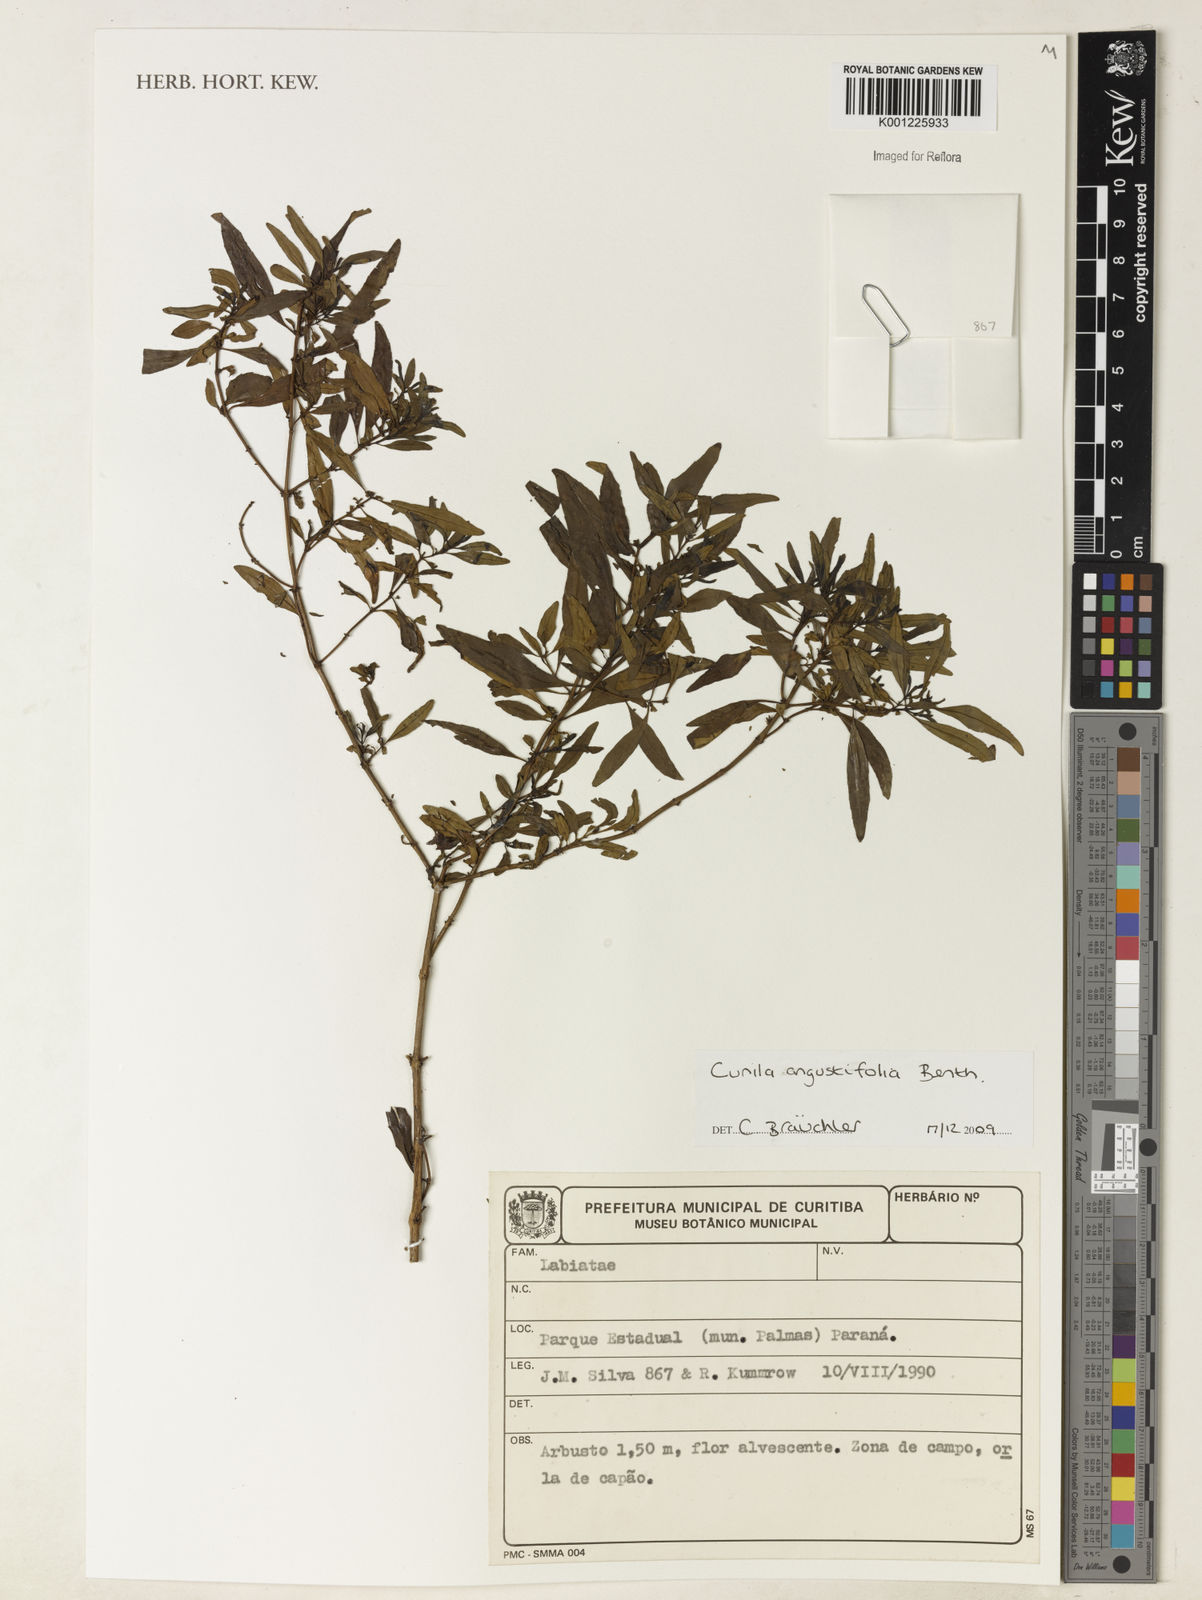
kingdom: Plantae
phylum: Tracheophyta
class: Magnoliopsida
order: Lamiales
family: Lamiaceae
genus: Cunila
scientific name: Cunila angustifolia
